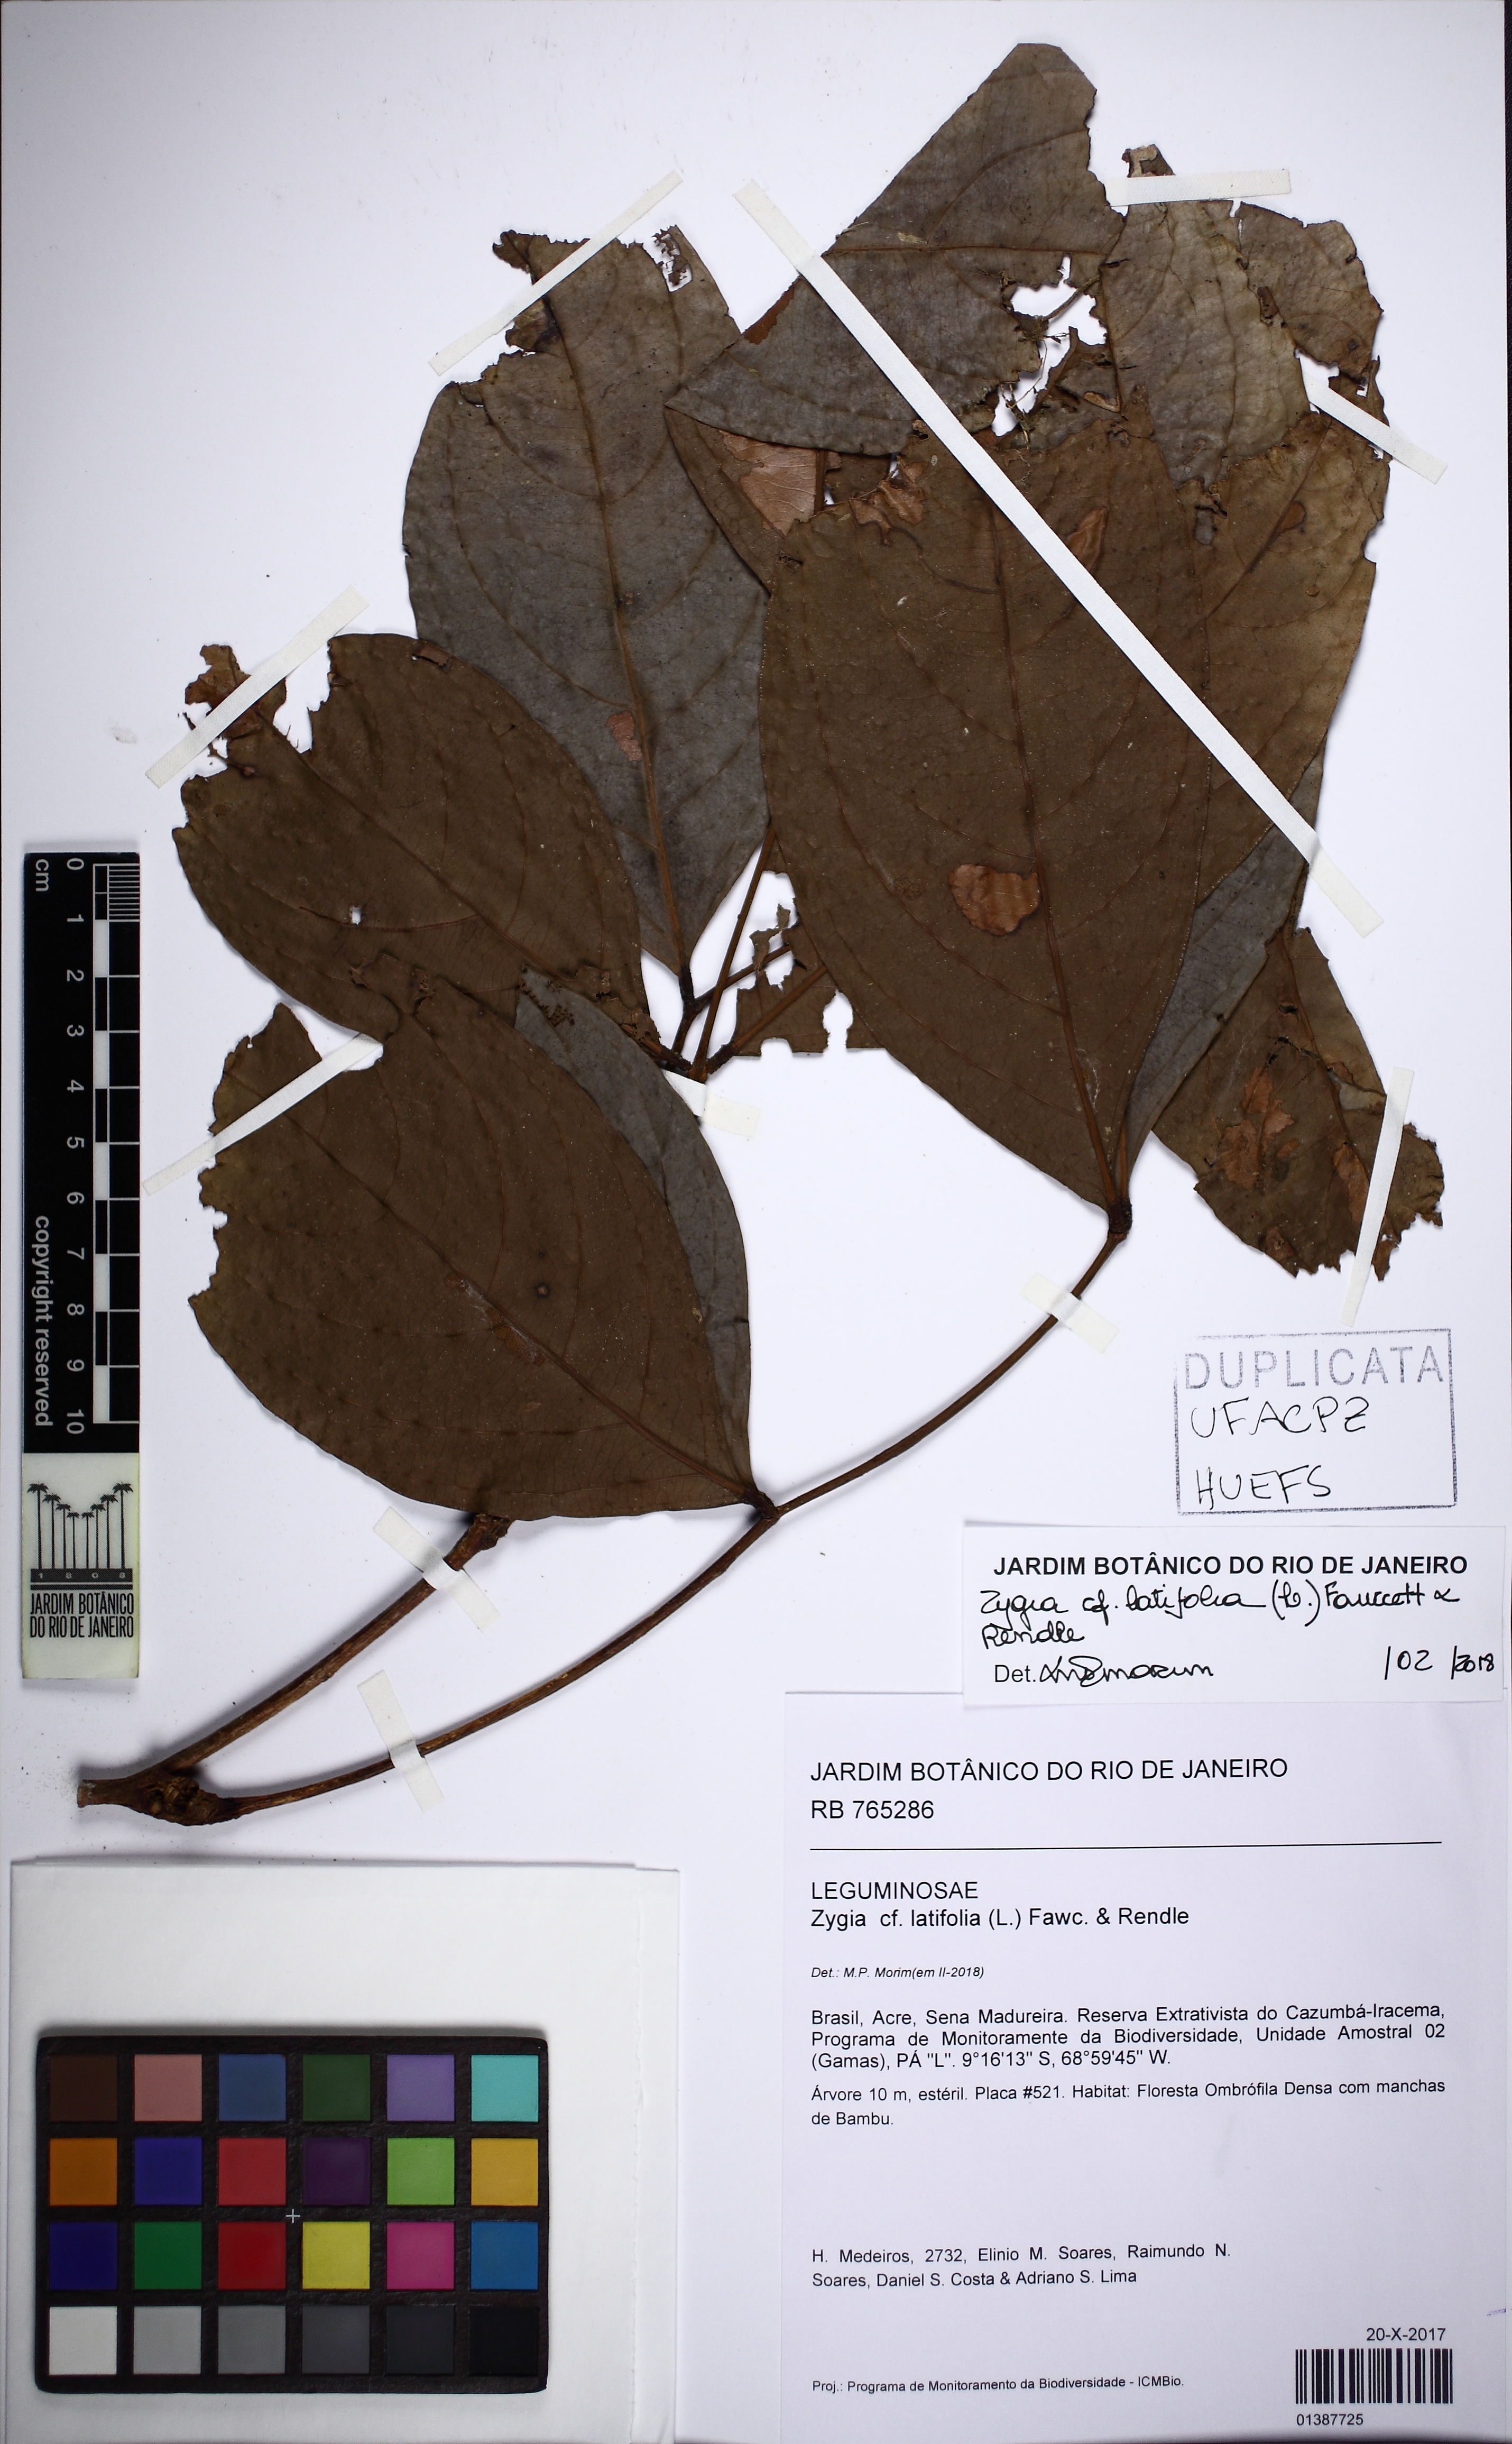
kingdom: Plantae
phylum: Tracheophyta
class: Magnoliopsida
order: Fabales
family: Fabaceae
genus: Zygia
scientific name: Zygia latifolia
